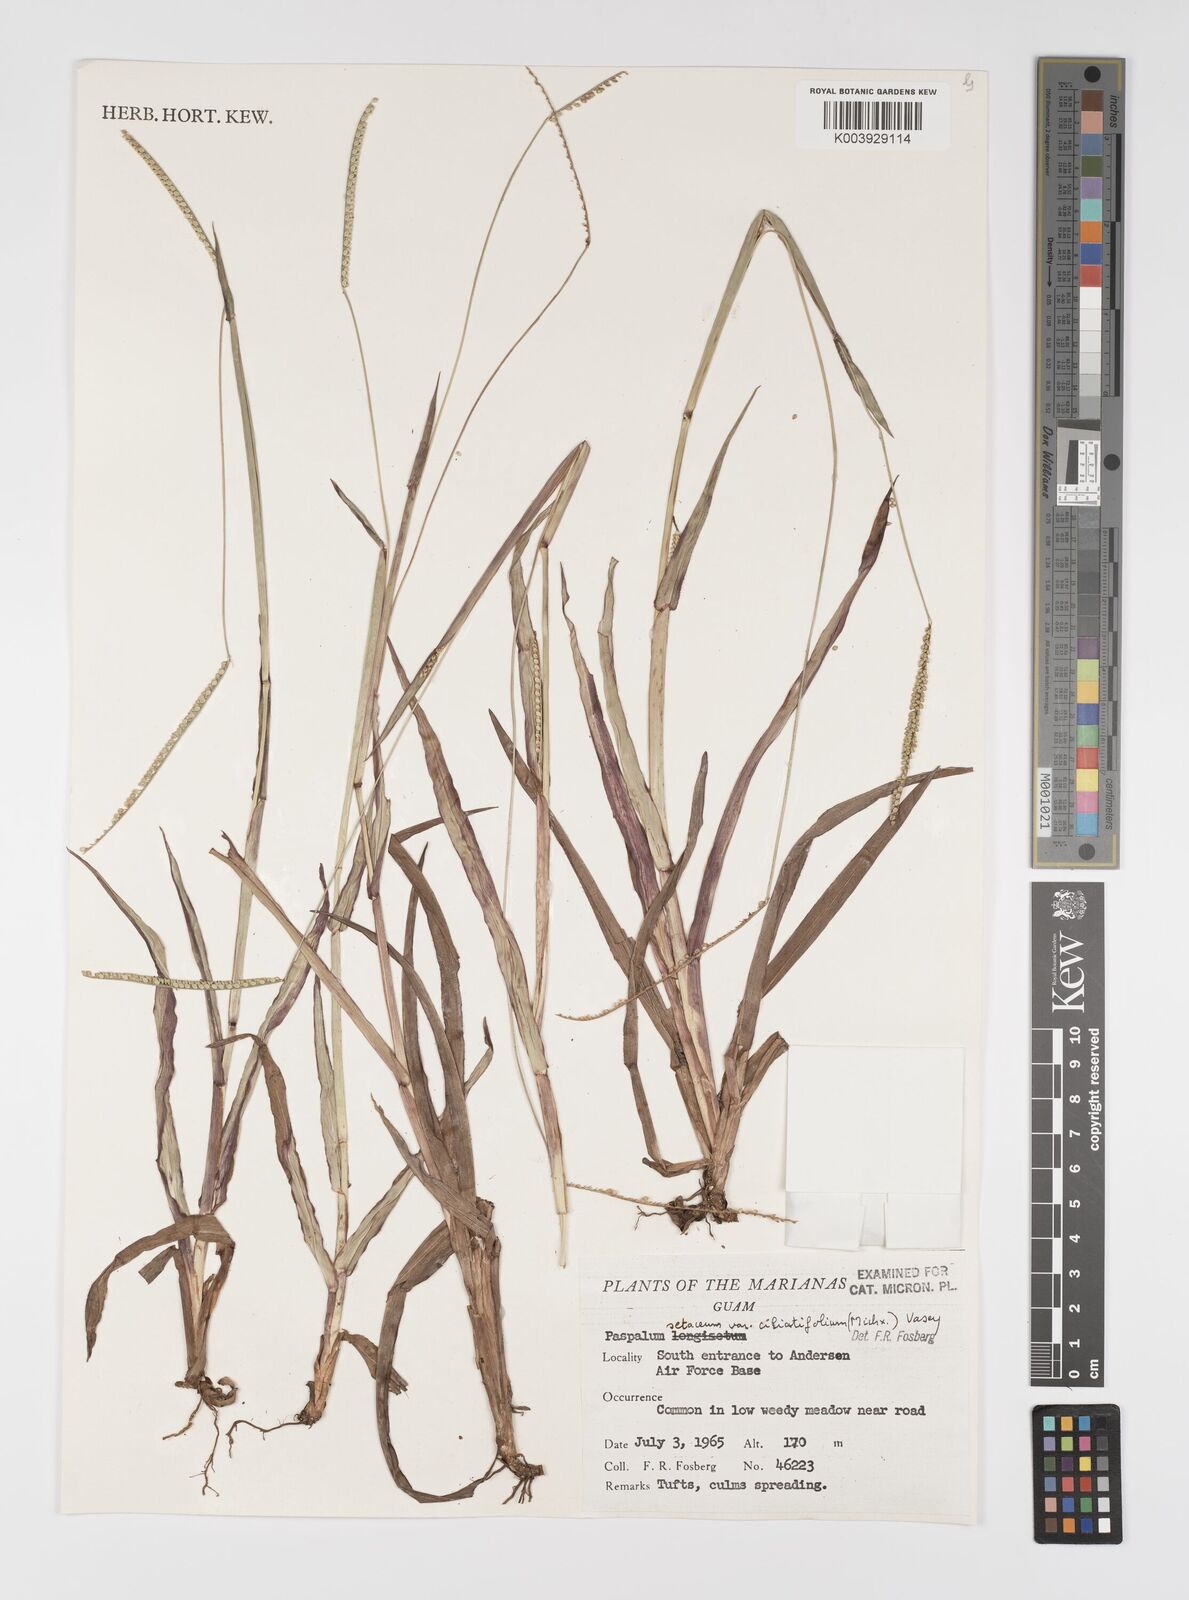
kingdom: Plantae
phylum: Tracheophyta
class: Liliopsida
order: Poales
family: Poaceae
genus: Paspalum
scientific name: Paspalum setaceum
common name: Slender paspalum
